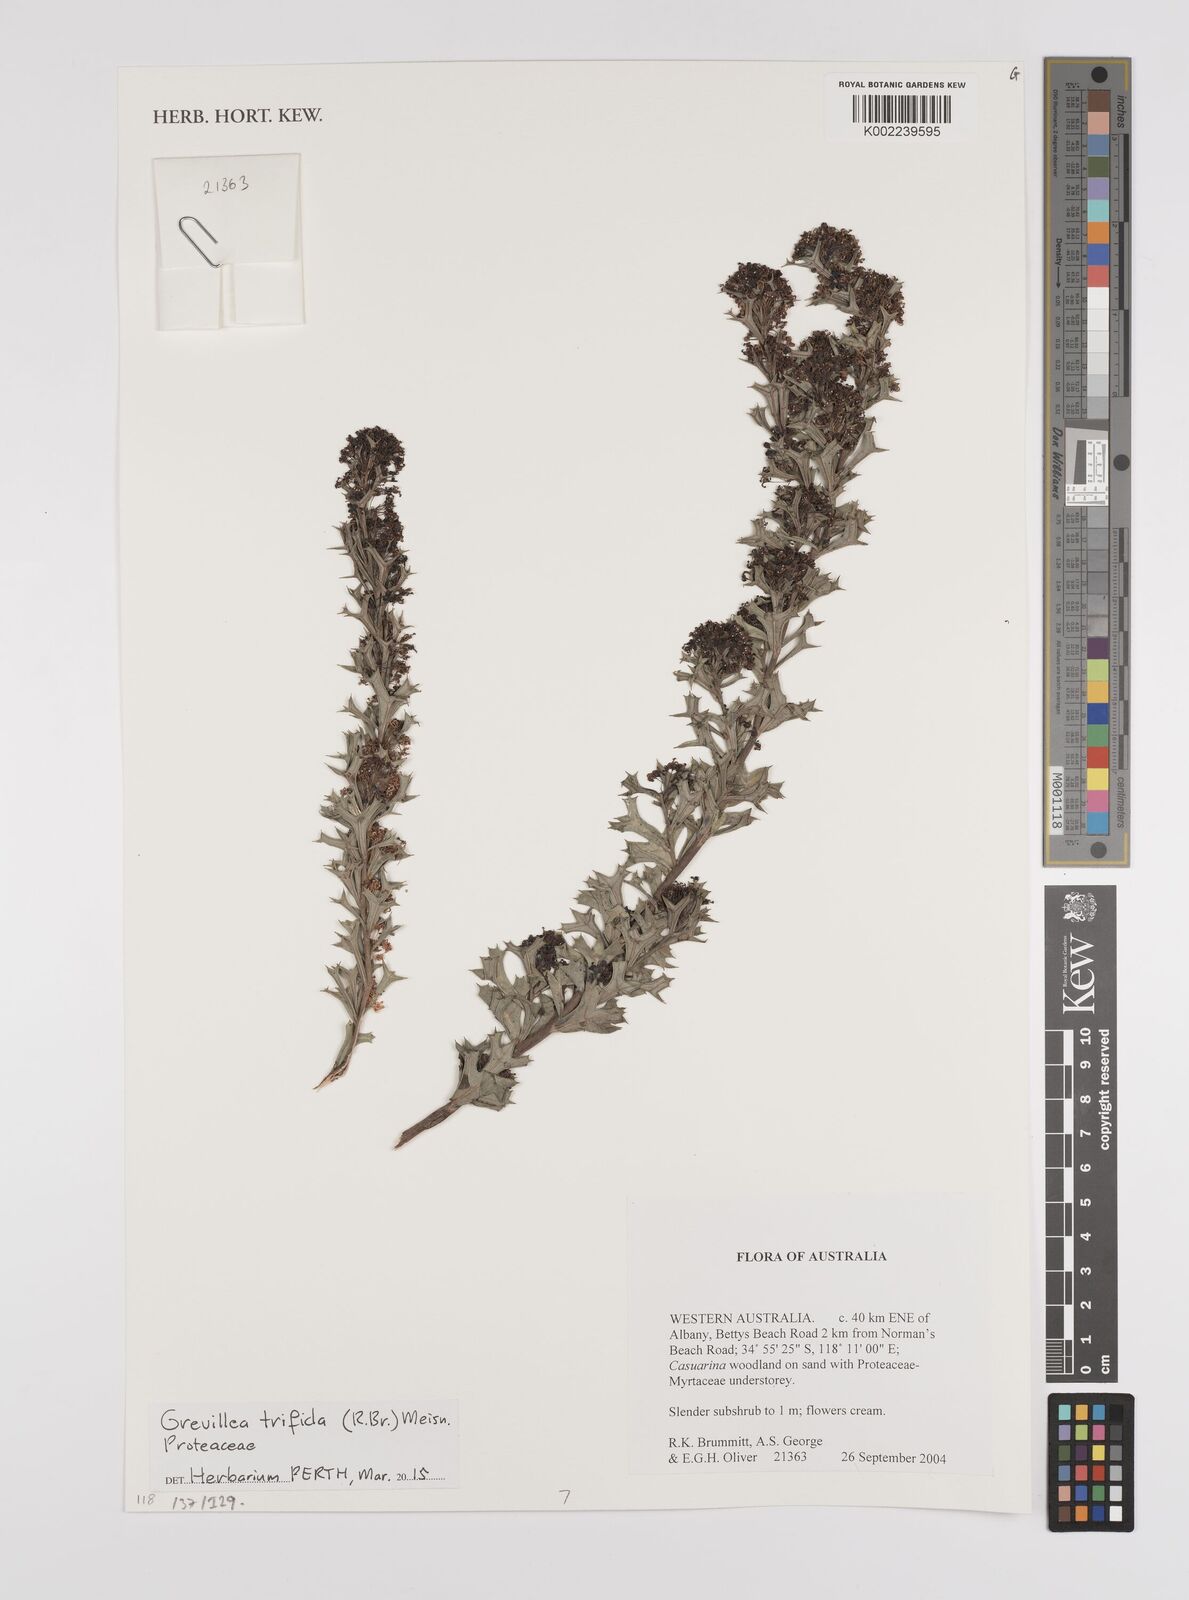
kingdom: Plantae
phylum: Tracheophyta
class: Magnoliopsida
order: Proteales
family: Proteaceae
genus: Grevillea
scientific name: Grevillea trifida
